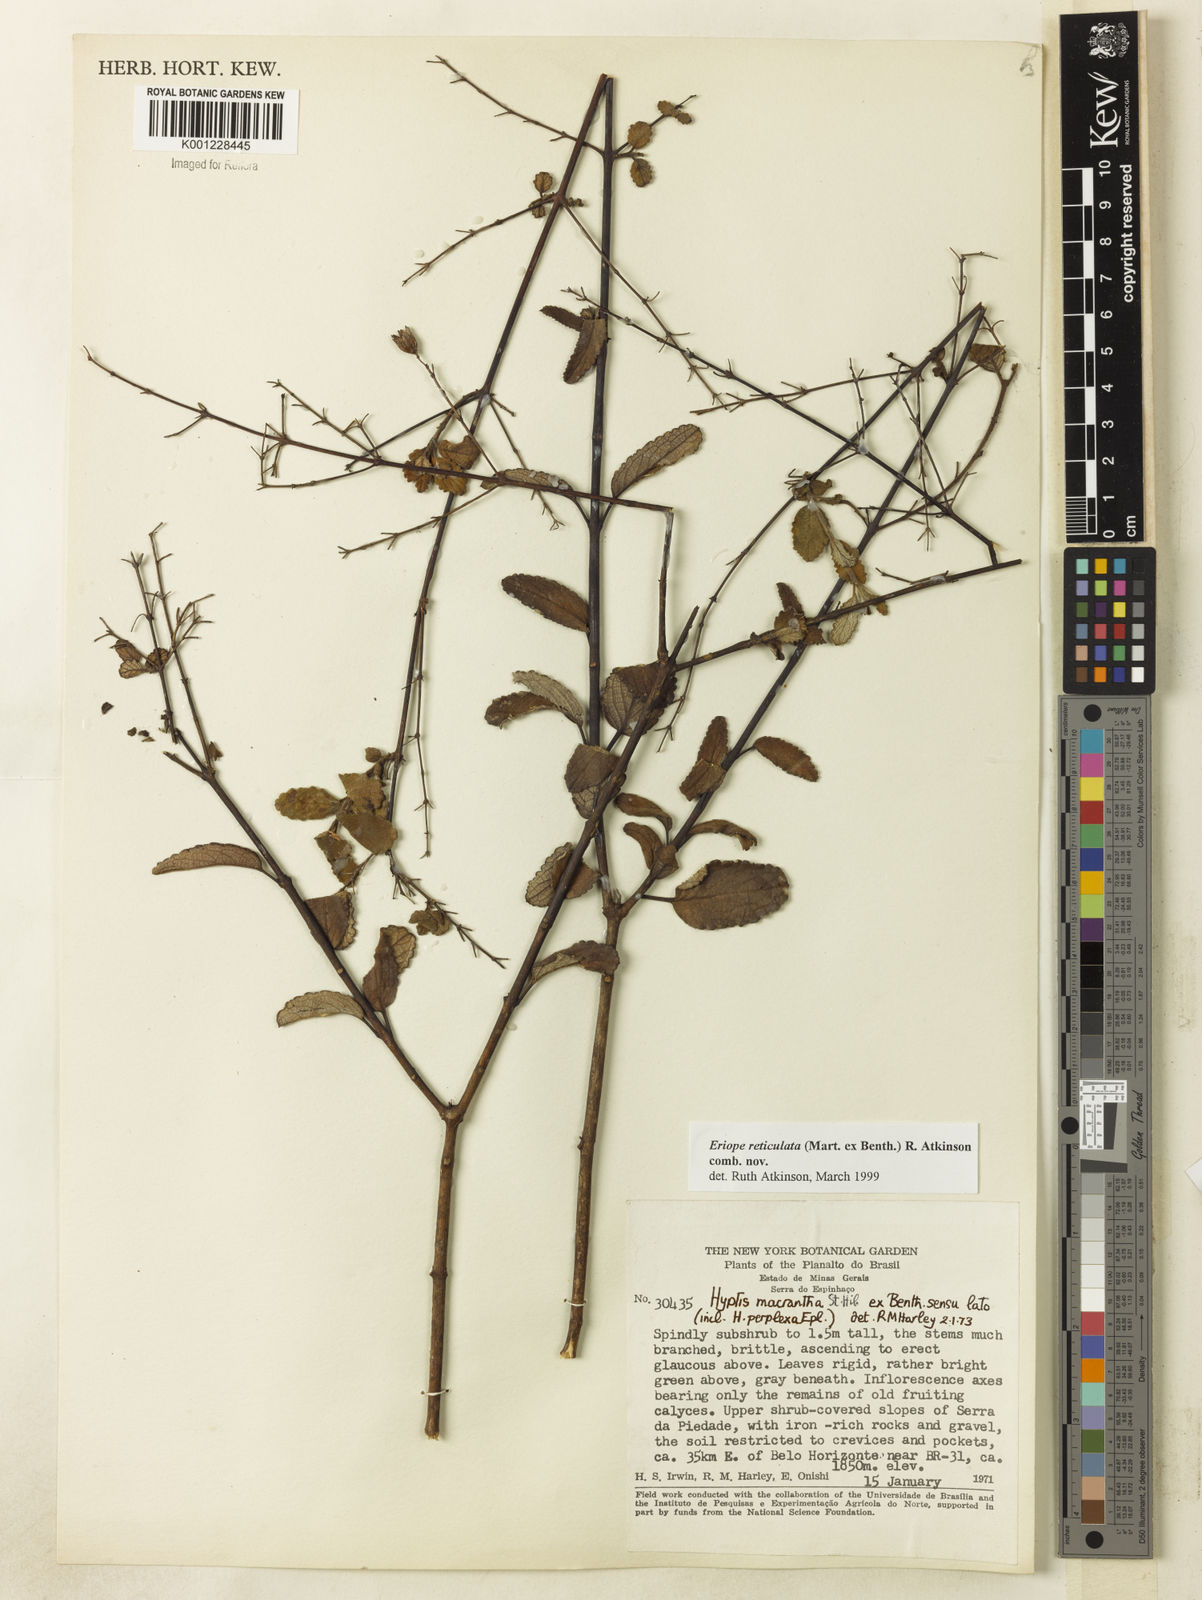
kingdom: Plantae
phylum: Tracheophyta
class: Magnoliopsida
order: Lamiales
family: Lamiaceae
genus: Hypenia
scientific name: Hypenia reticulata
